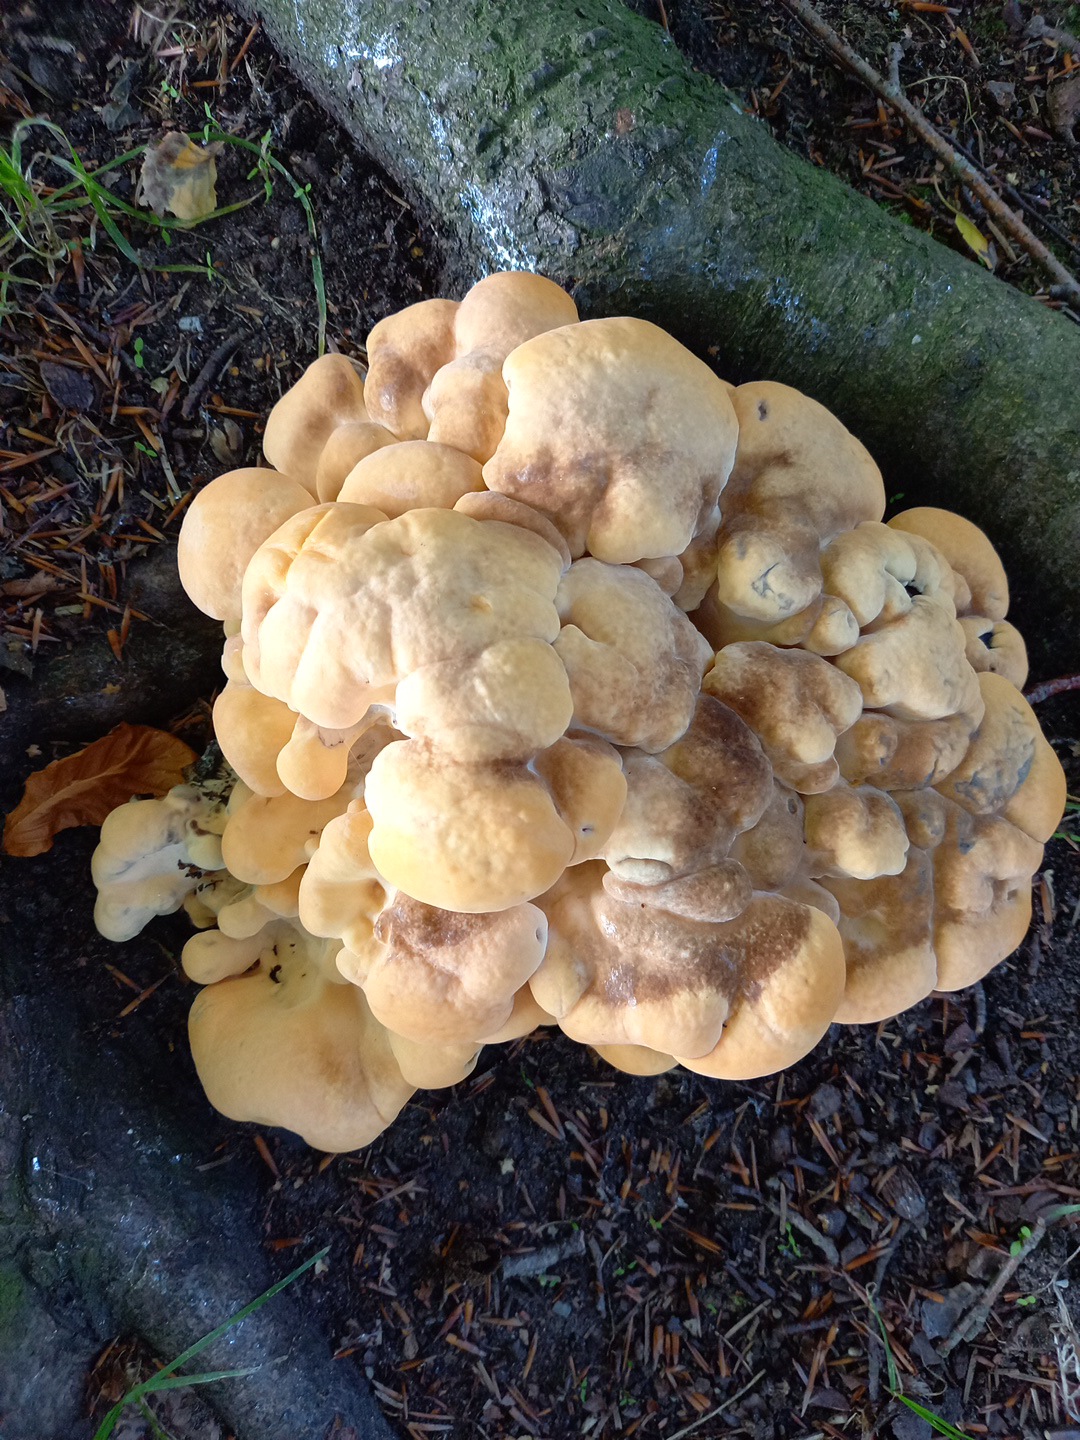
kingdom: Fungi
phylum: Basidiomycota
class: Agaricomycetes
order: Polyporales
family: Meripilaceae
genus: Meripilus
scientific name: Meripilus giganteus
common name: kæmpeporesvamp
